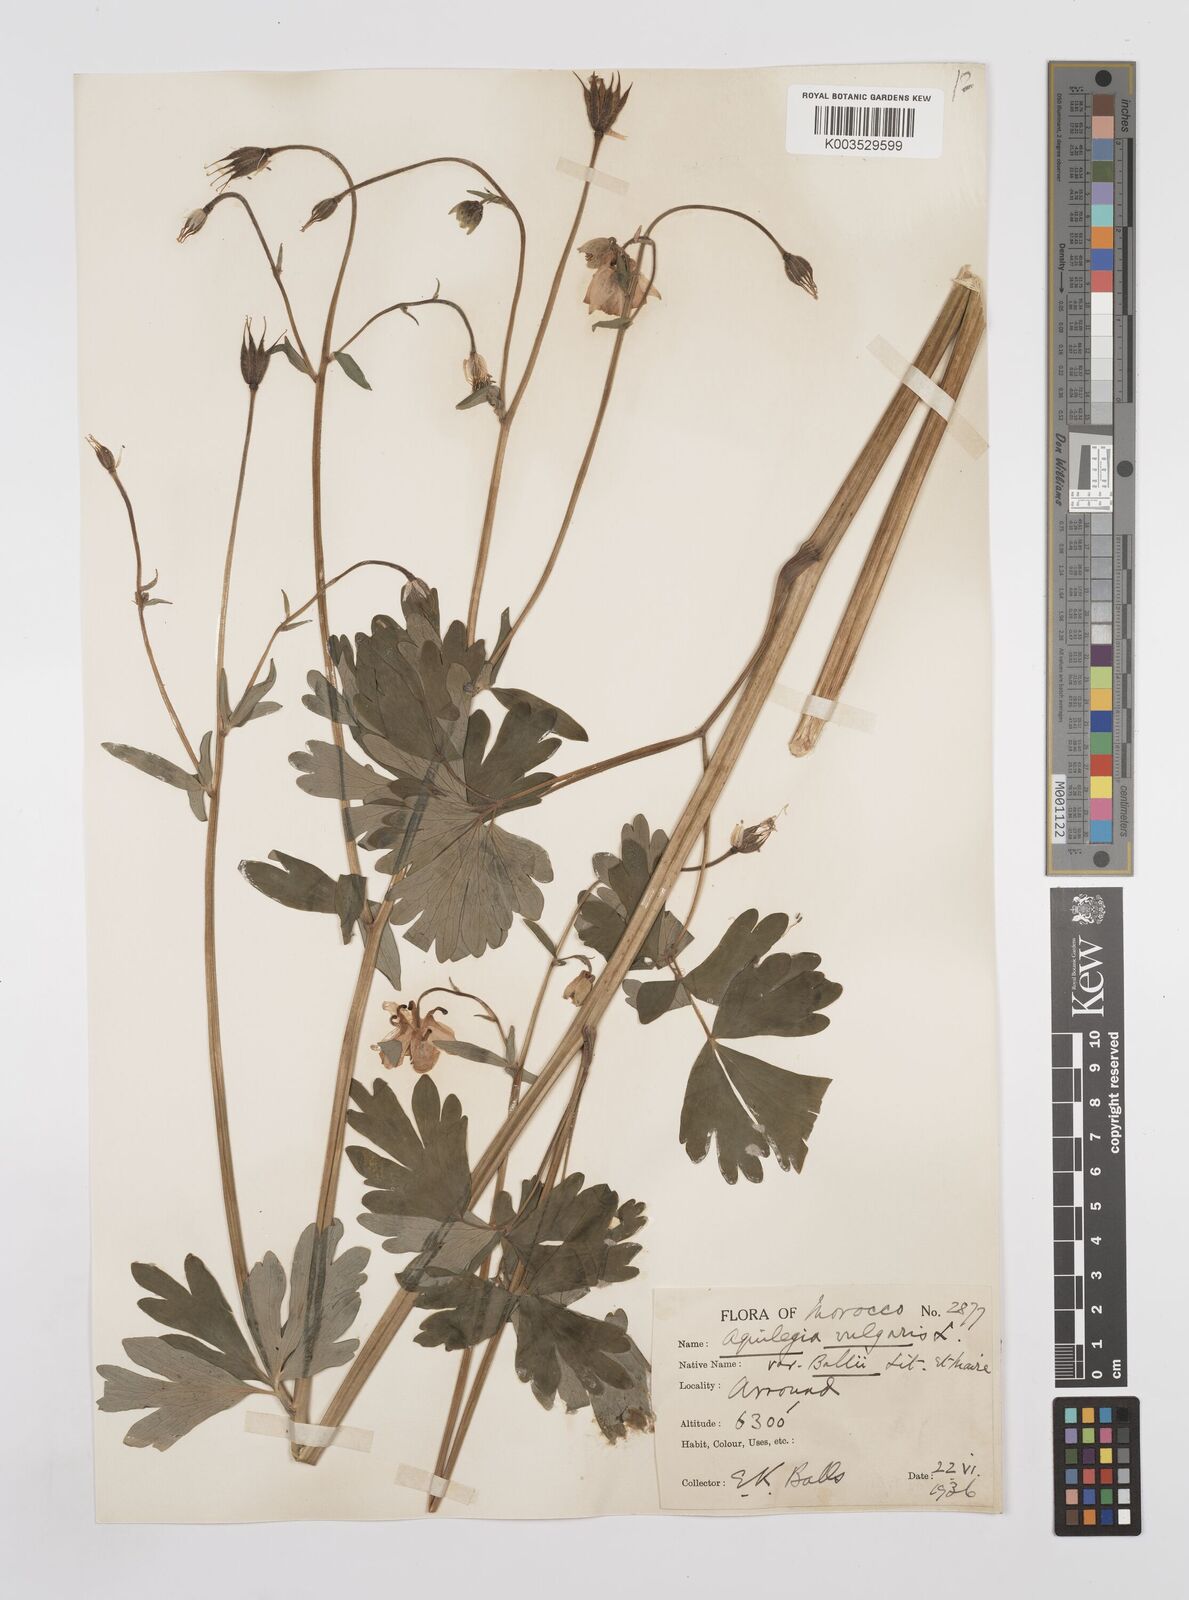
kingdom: Plantae
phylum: Tracheophyta
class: Magnoliopsida
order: Ranunculales
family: Ranunculaceae
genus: Aquilegia
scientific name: Aquilegia ballii
